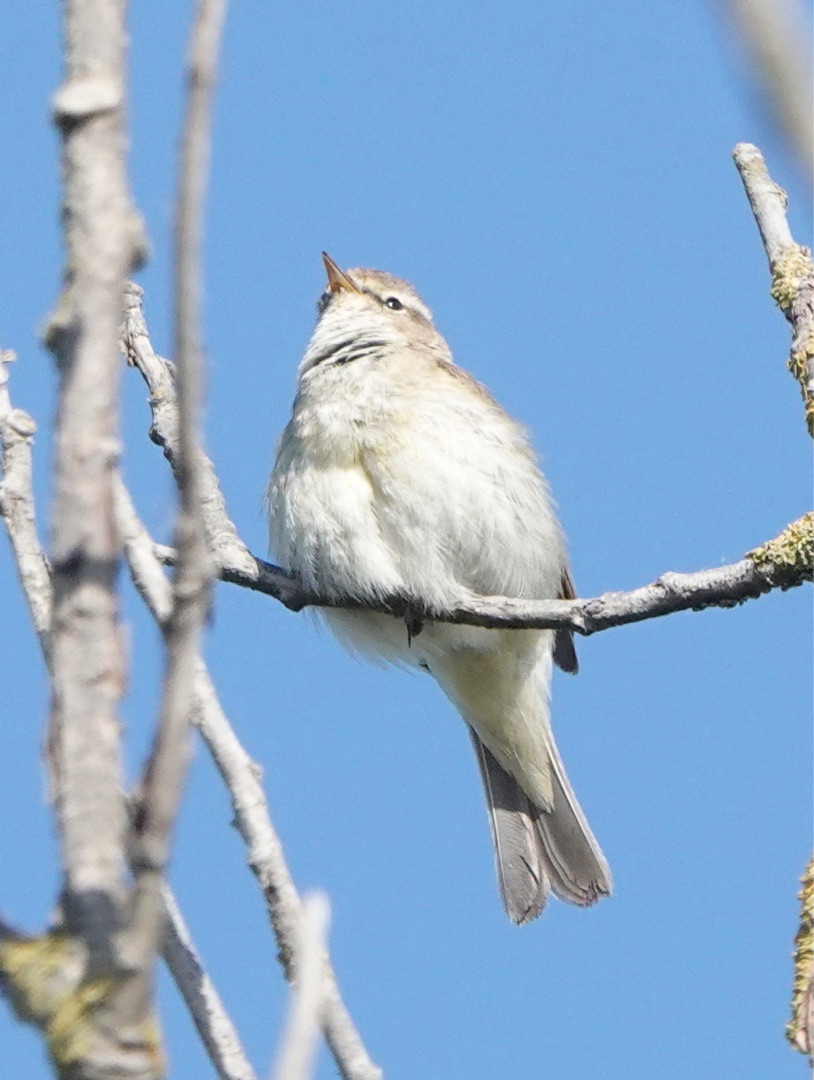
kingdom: Animalia
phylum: Chordata
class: Aves
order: Passeriformes
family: Phylloscopidae
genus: Phylloscopus
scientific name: Phylloscopus collybita
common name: Gransanger
